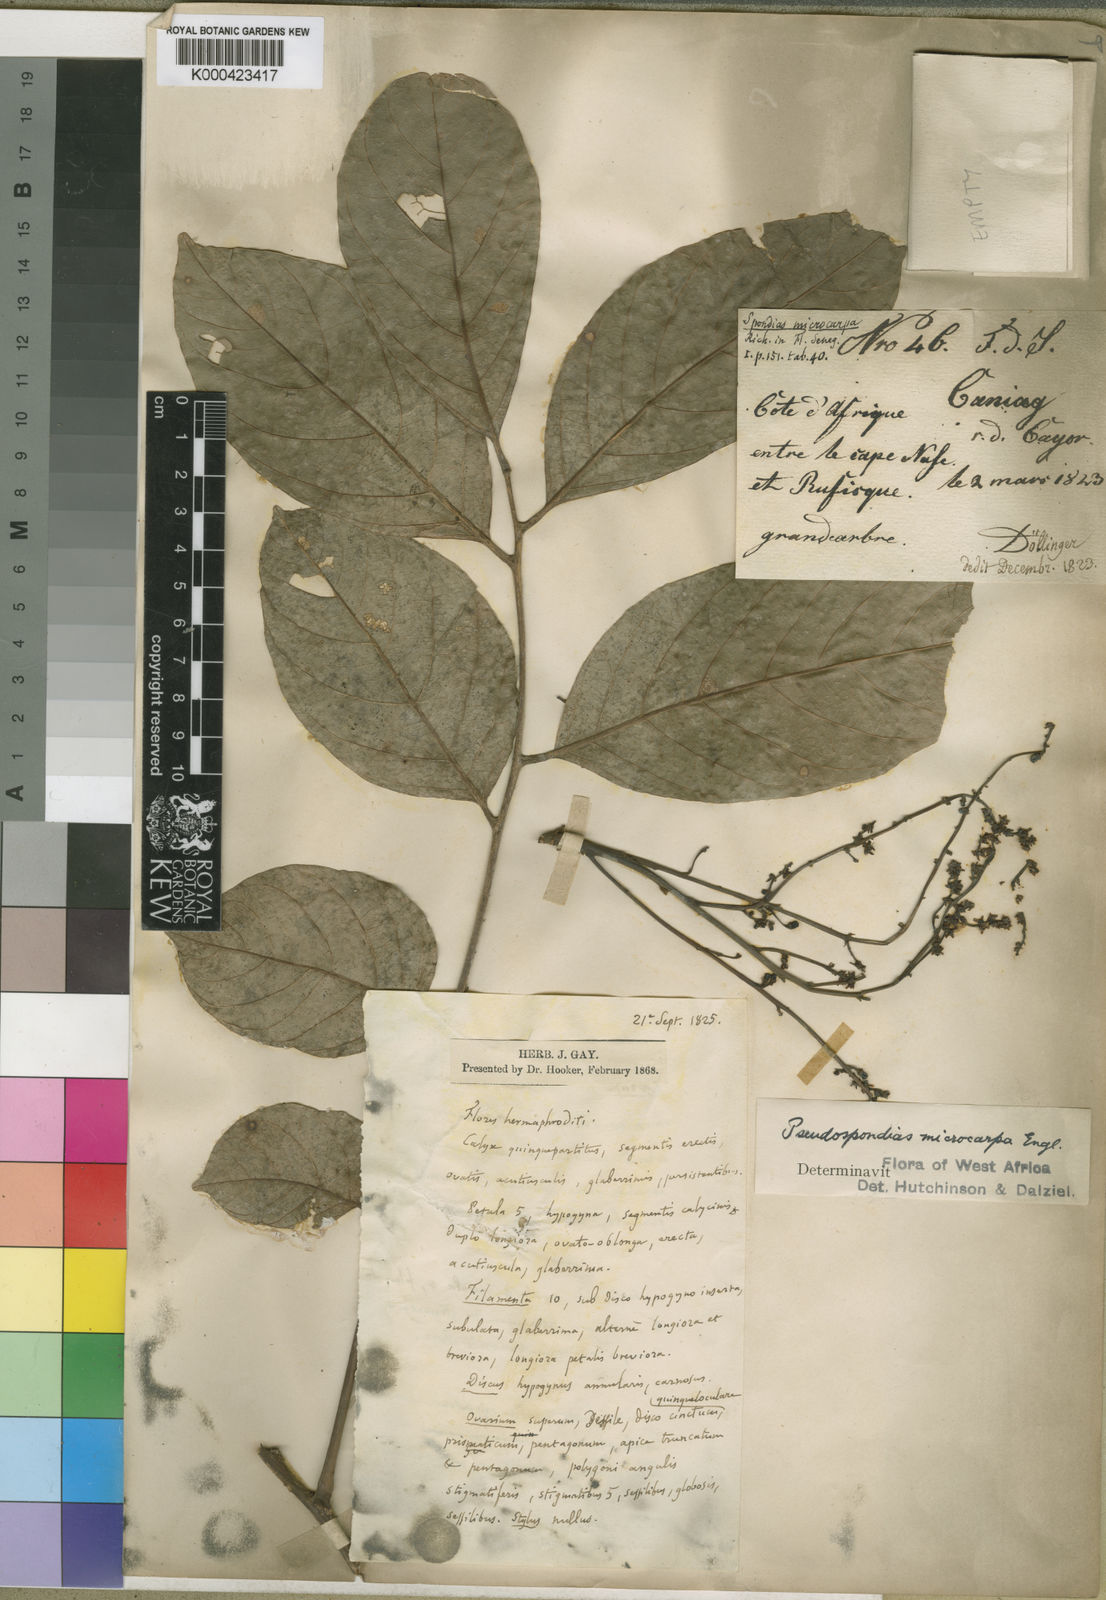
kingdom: Plantae
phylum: Tracheophyta
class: Magnoliopsida
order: Sapindales
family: Anacardiaceae
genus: Pseudospondias
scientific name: Pseudospondias microcarpa
